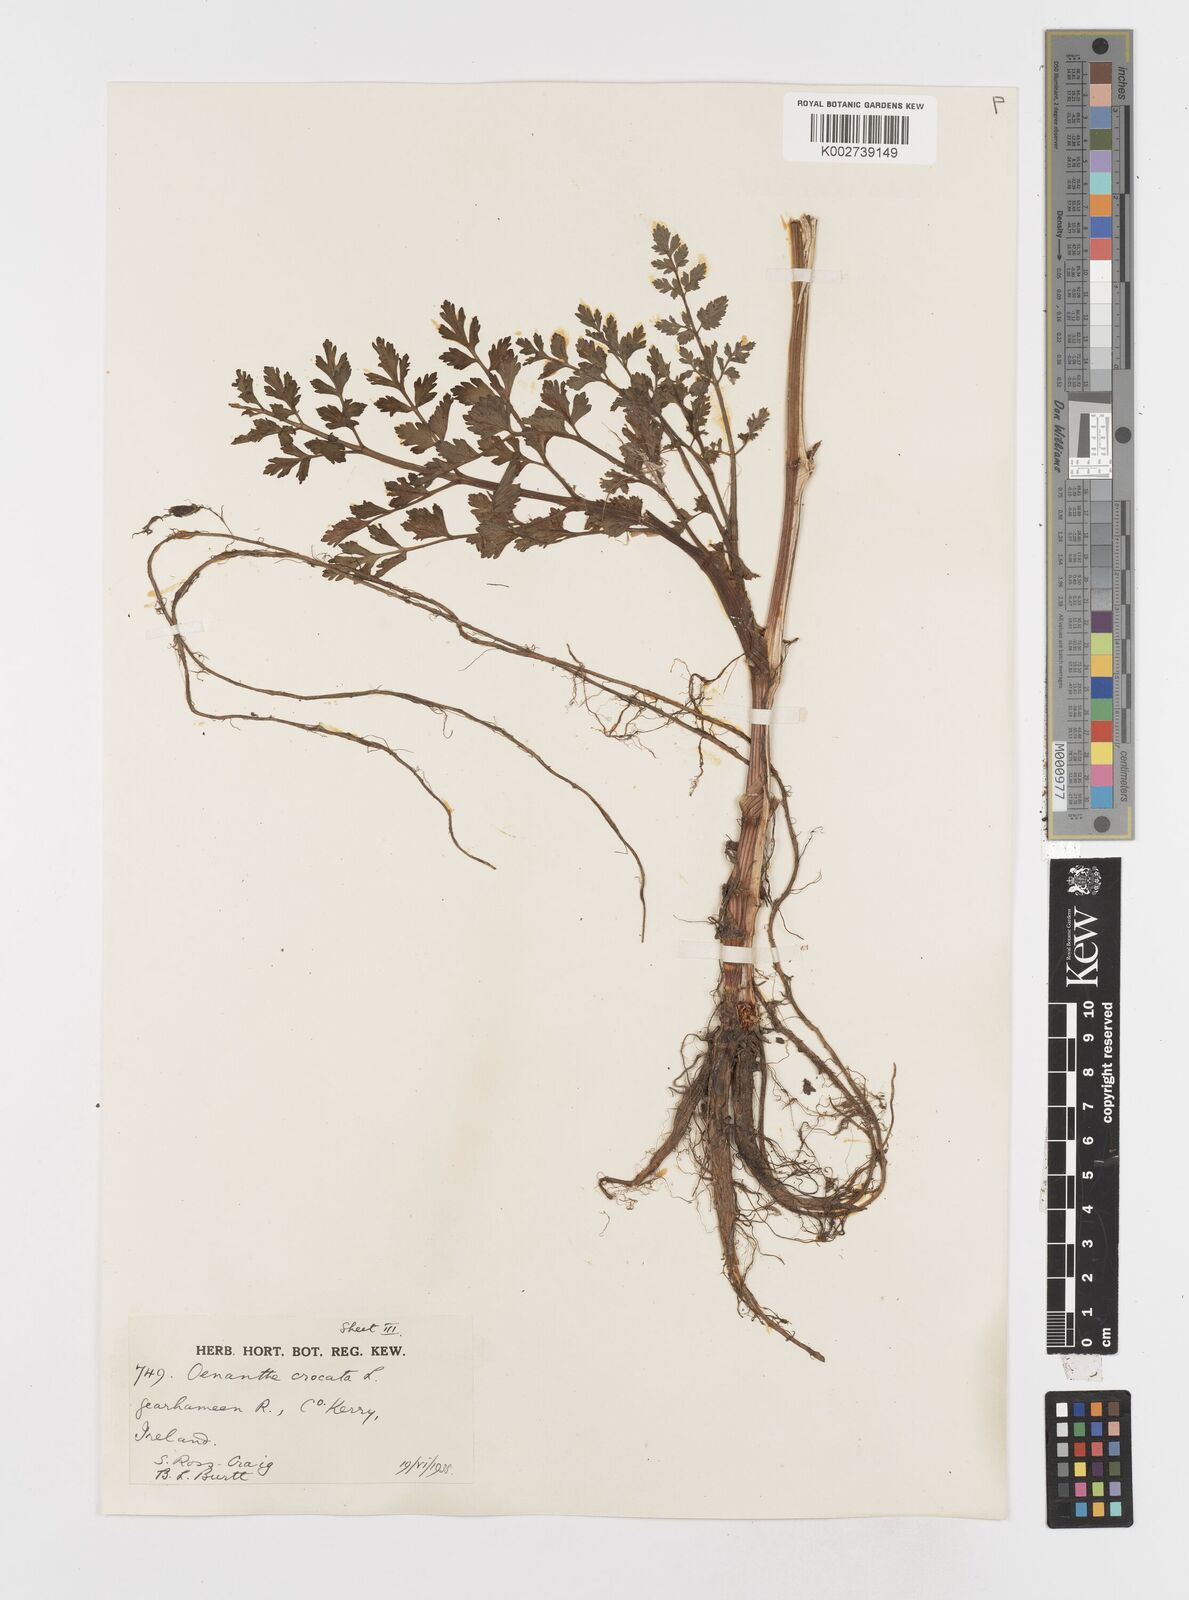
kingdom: Plantae
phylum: Tracheophyta
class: Magnoliopsida
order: Apiales
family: Apiaceae
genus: Oenanthe
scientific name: Oenanthe crocata
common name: Hemlock water-dropwort
